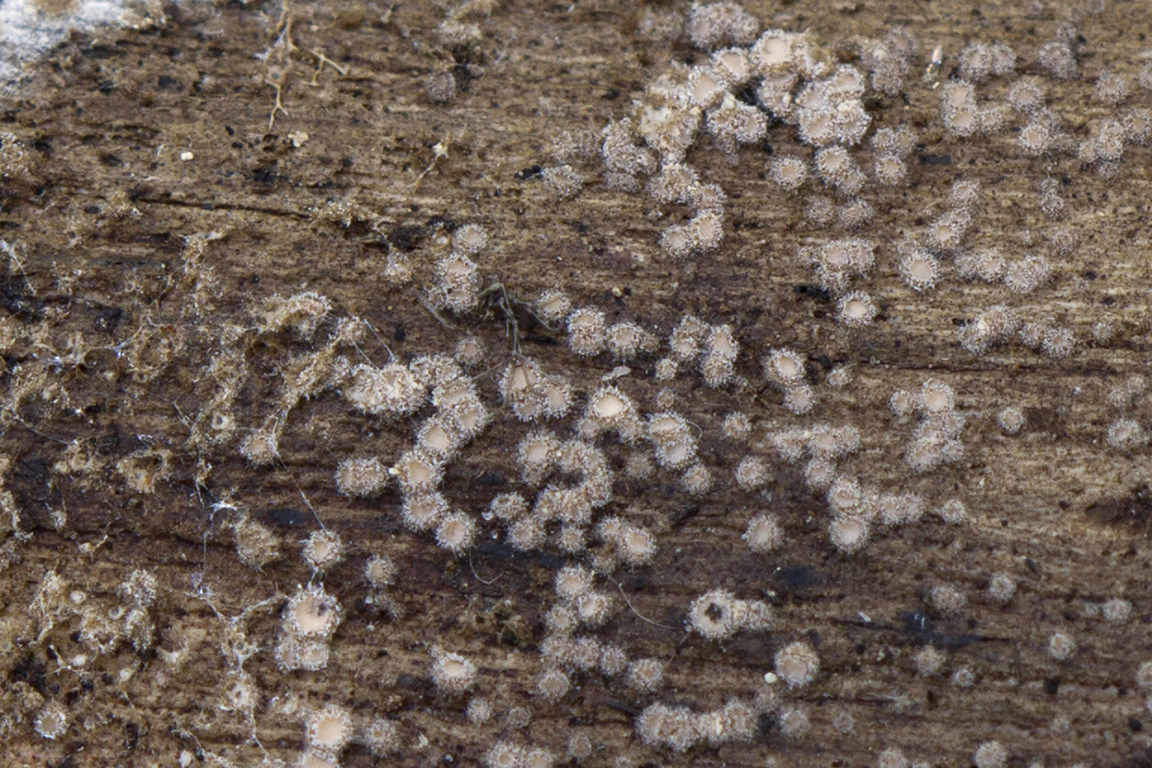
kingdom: Fungi
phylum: Ascomycota
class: Leotiomycetes
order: Helotiales
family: Solenopeziaceae
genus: Lasiobelonium
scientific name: Lasiobelonium variegatum
